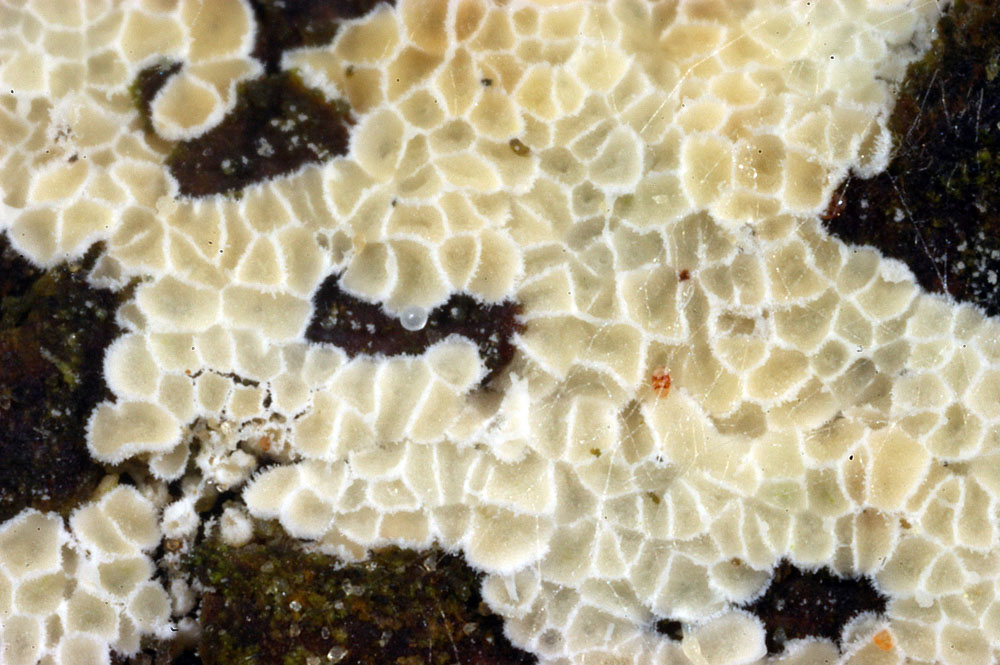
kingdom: Fungi
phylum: Basidiomycota
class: Agaricomycetes
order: Polyporales
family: Irpicaceae
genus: Ceriporia
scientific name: Ceriporia reticulata
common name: netagtig voksporesvamp
